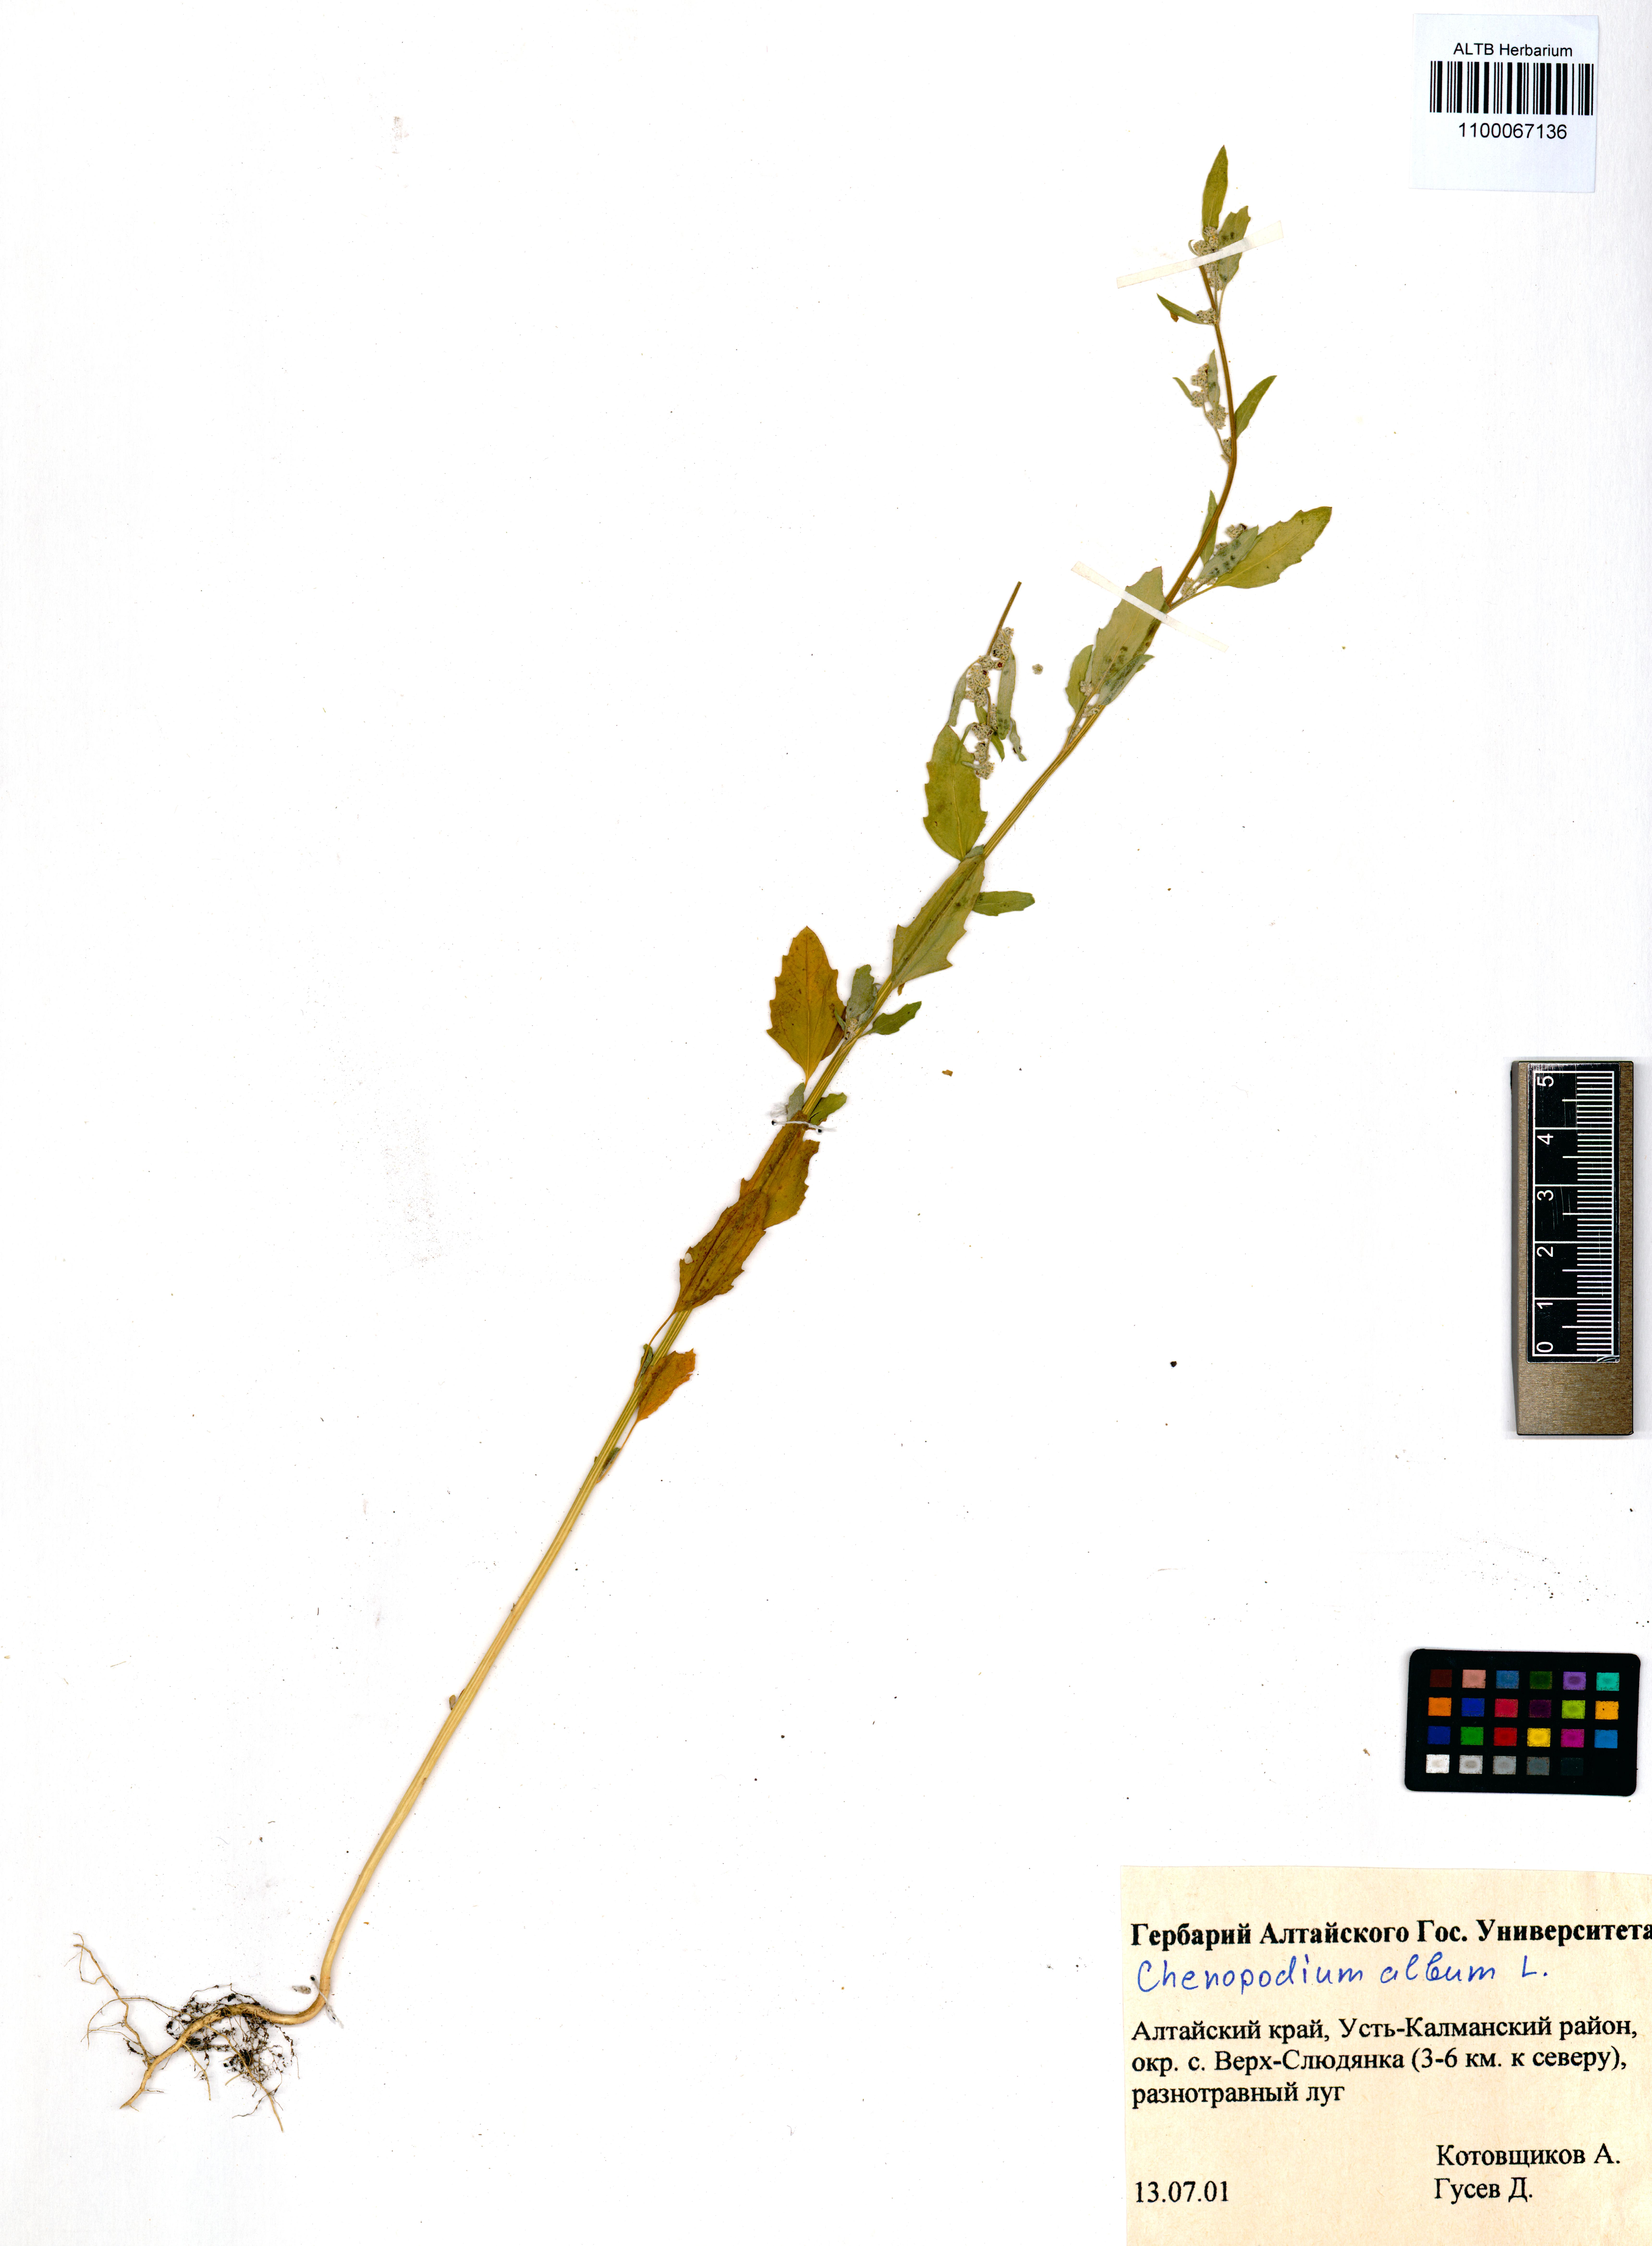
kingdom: Plantae
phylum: Tracheophyta
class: Magnoliopsida
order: Caryophyllales
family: Amaranthaceae
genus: Chenopodium
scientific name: Chenopodium album
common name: Fat-hen
